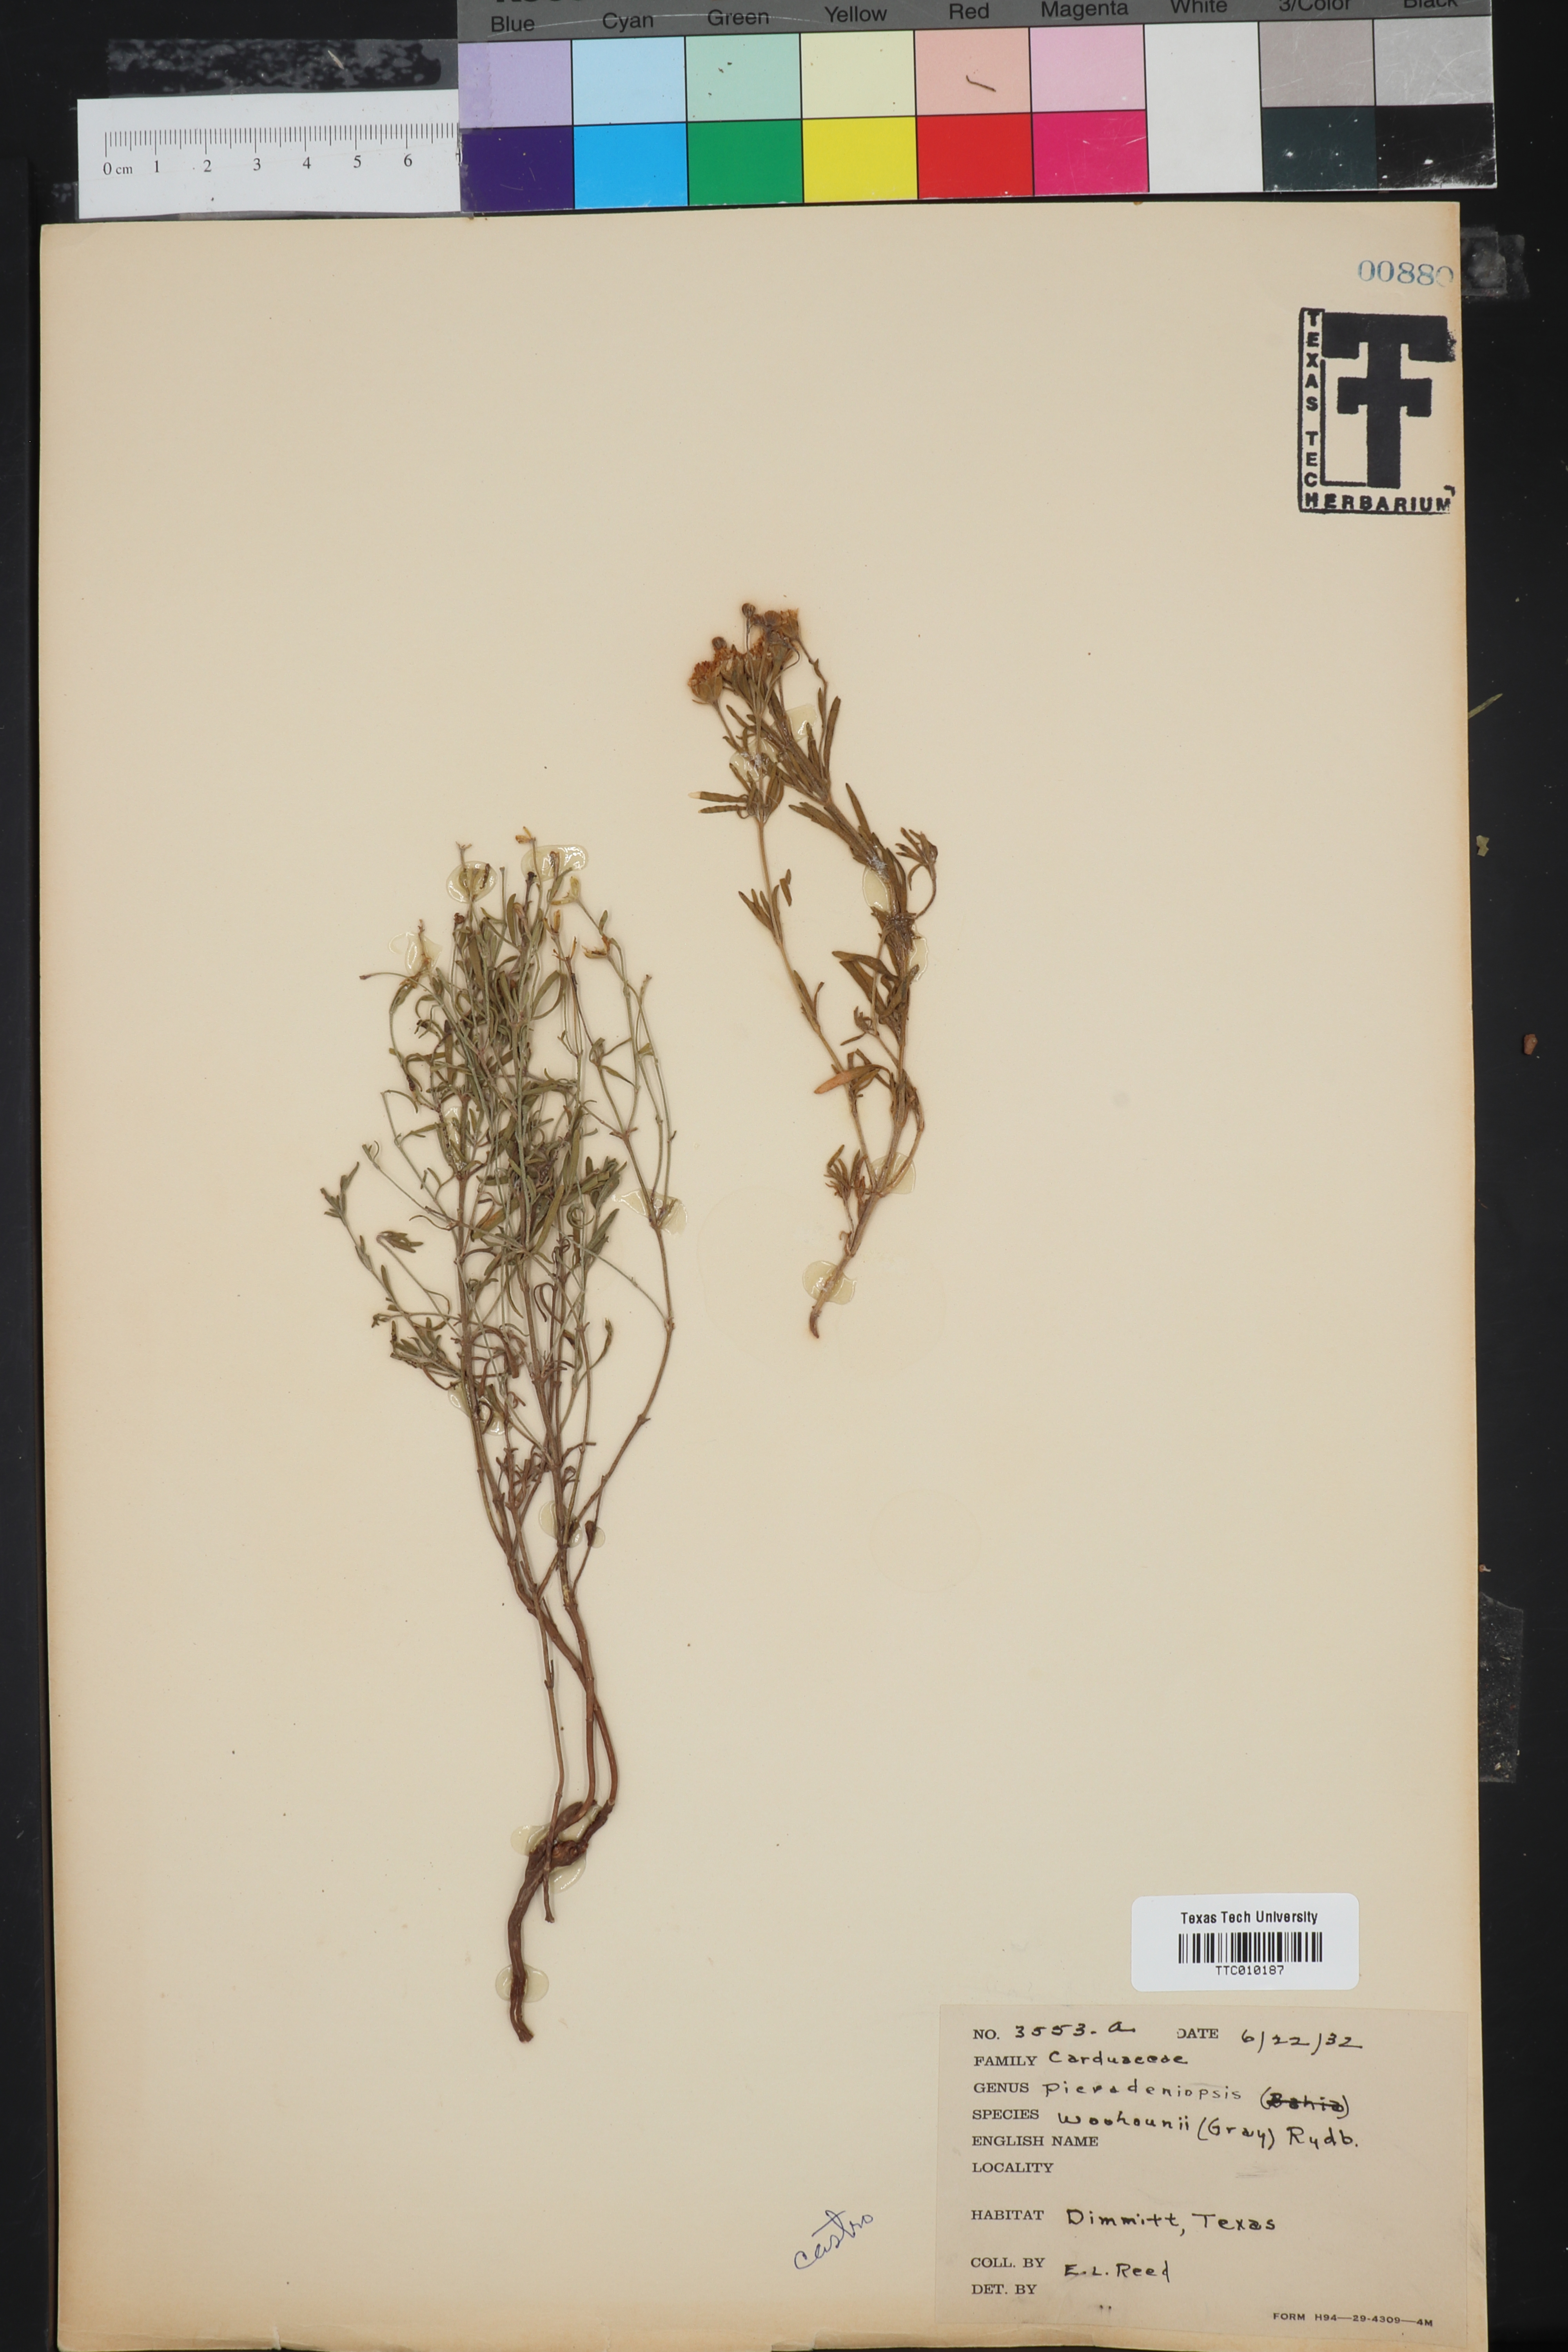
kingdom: Plantae
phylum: Tracheophyta
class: Magnoliopsida
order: Asterales
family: Asteraceae
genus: Picradeniopsis
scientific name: Picradeniopsis woodhousei
